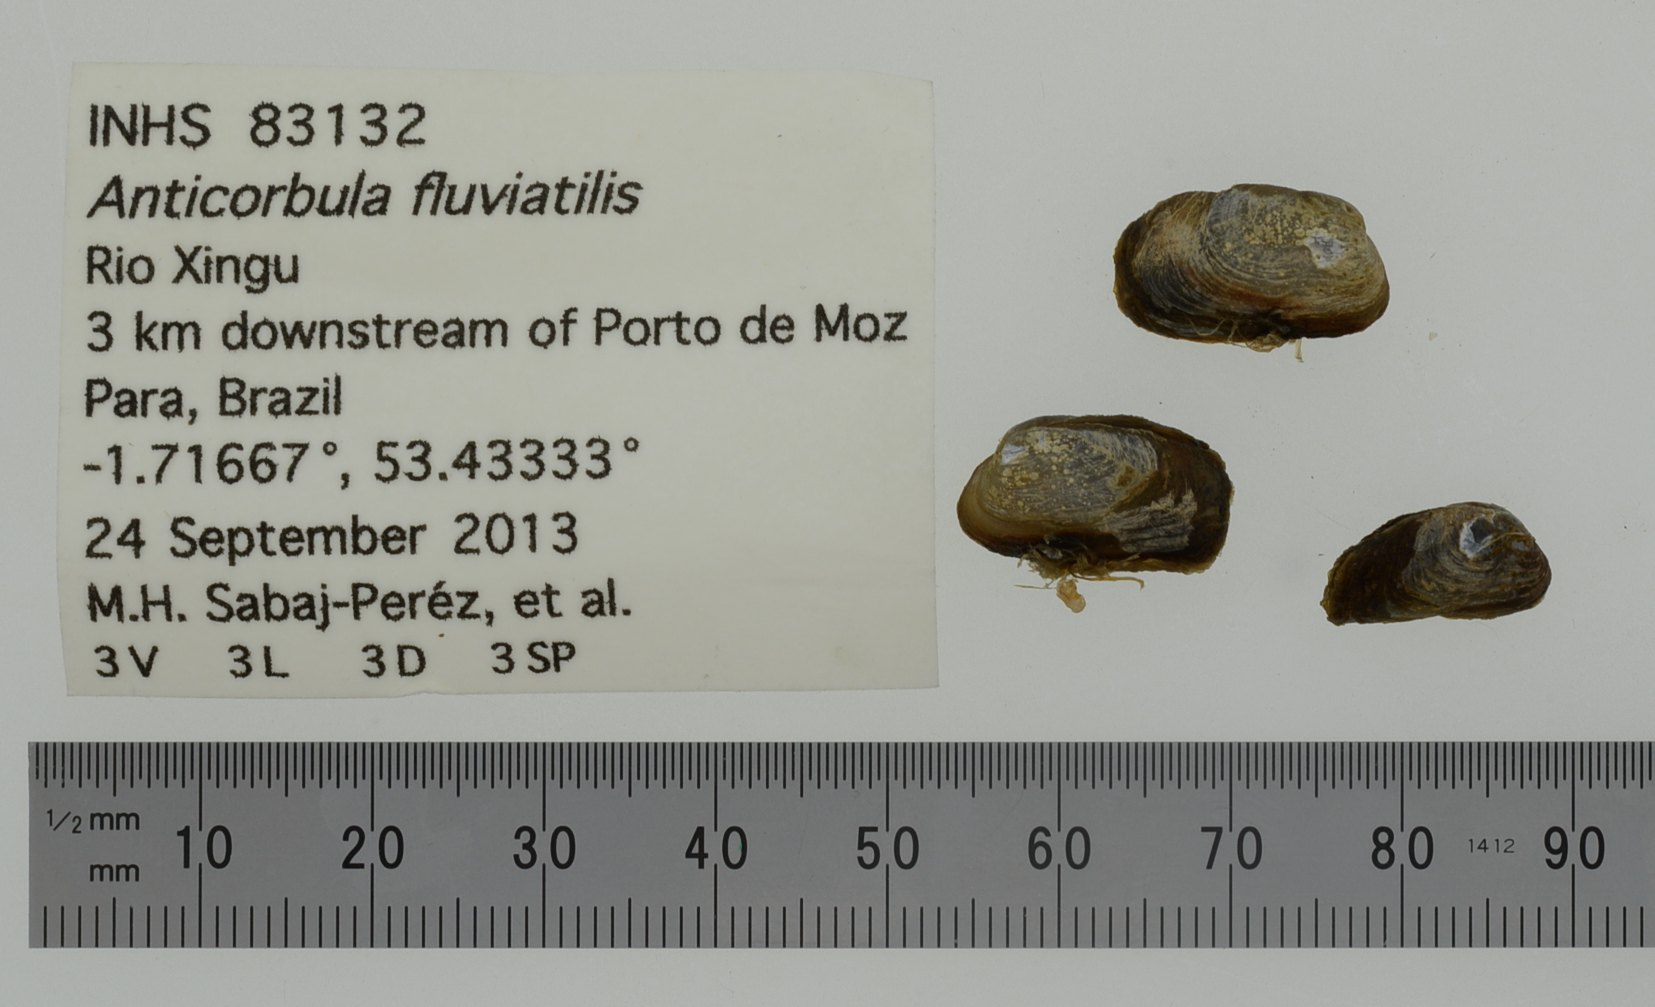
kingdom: Animalia
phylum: Mollusca
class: Bivalvia
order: Myida
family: Corbulidae
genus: Anticorbula
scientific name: Anticorbula fluviatilis
